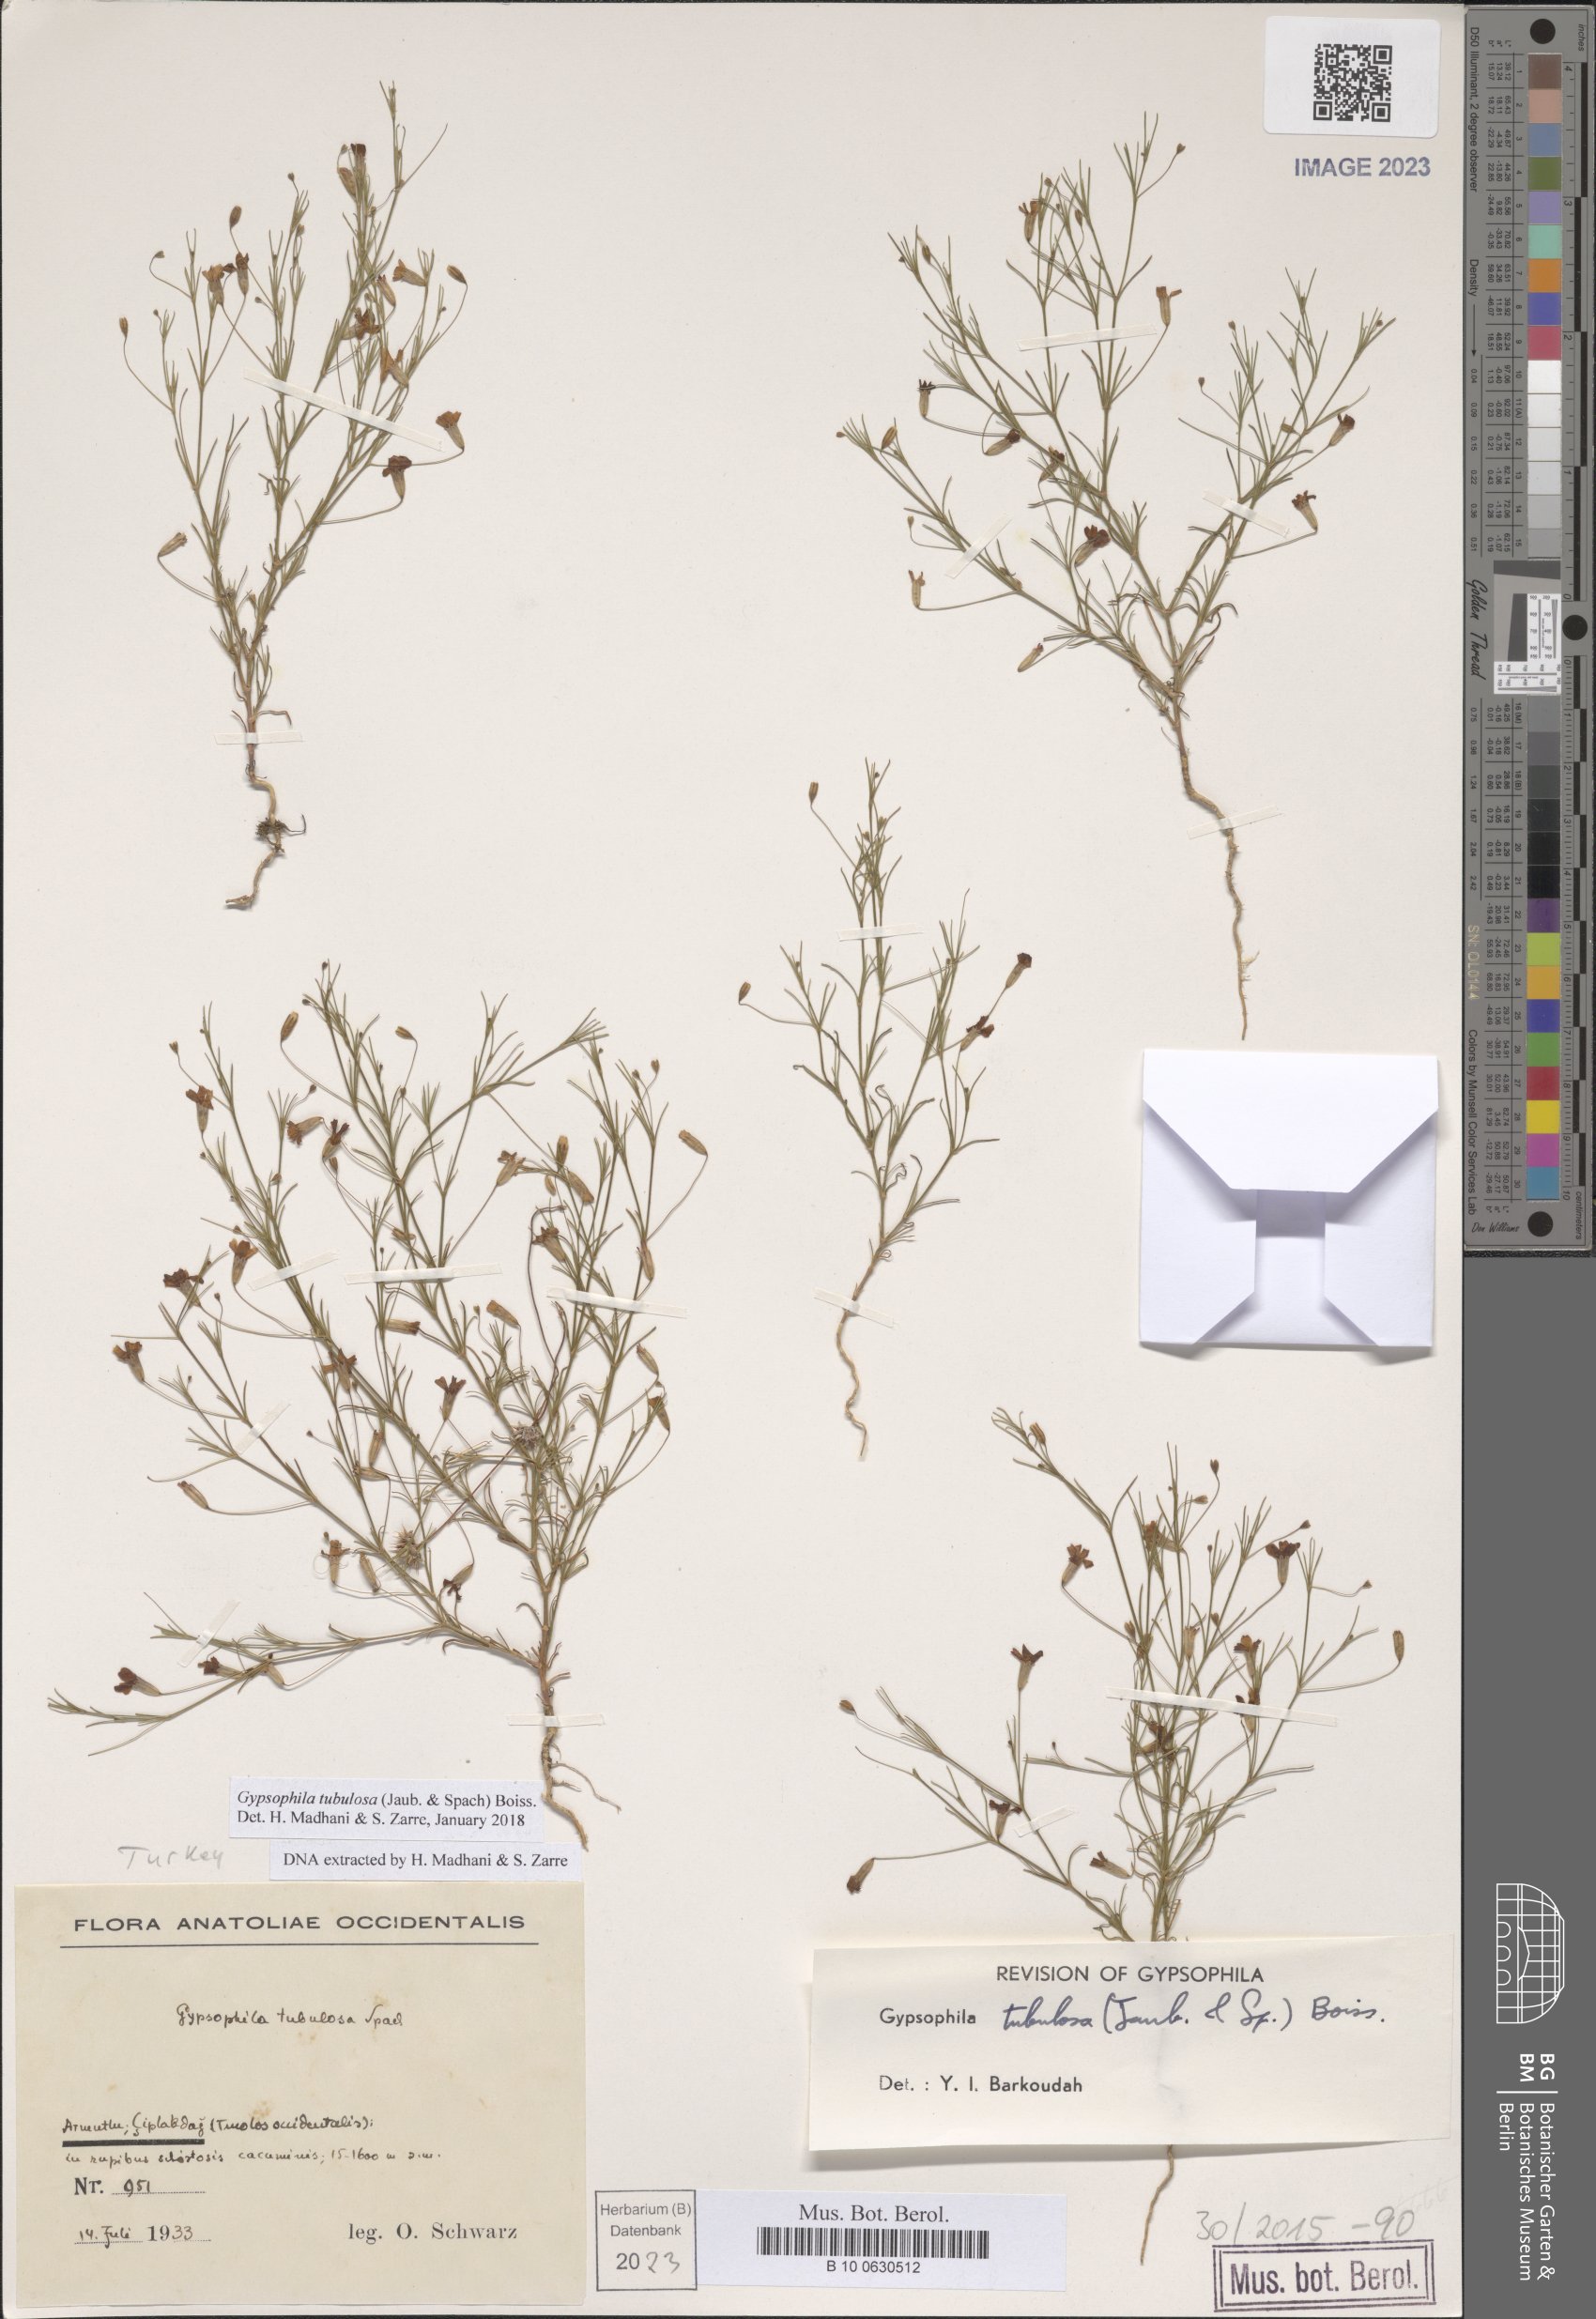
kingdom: Plantae
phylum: Tracheophyta
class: Magnoliopsida
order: Caryophyllales
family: Caryophyllaceae
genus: Psammophiliella
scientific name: Psammophiliella tubulosa
